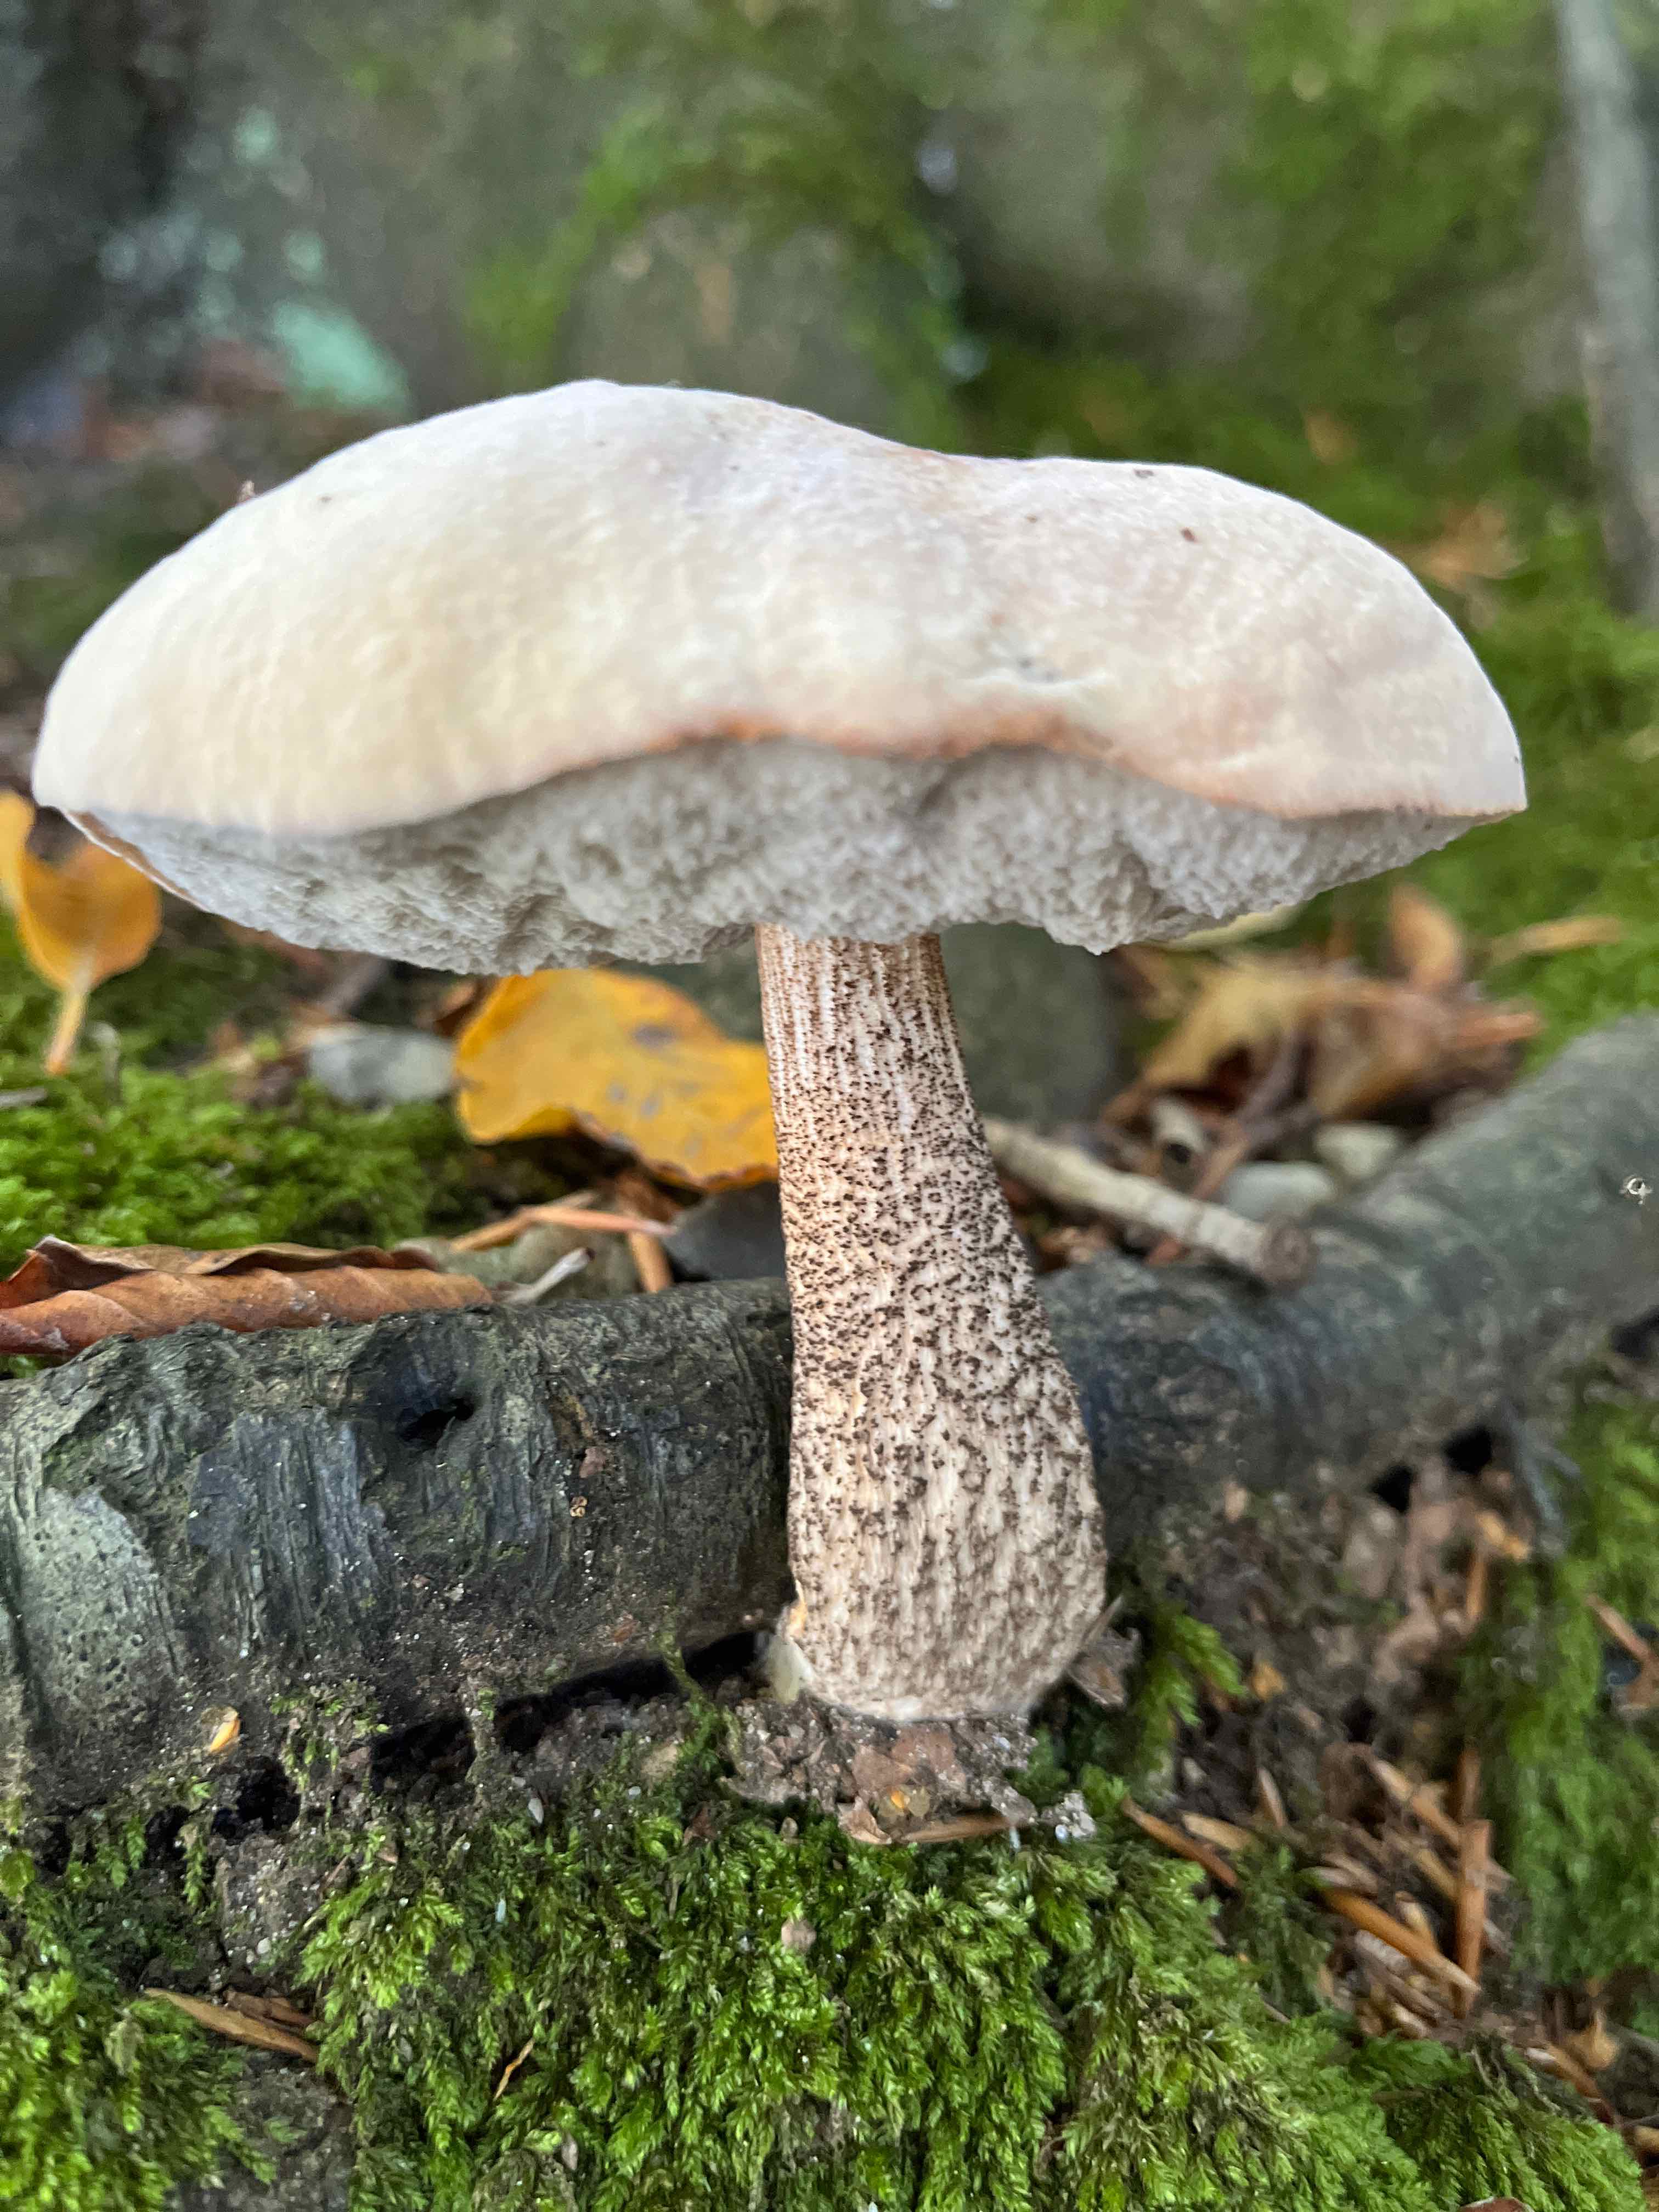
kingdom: Fungi
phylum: Basidiomycota
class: Agaricomycetes
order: Boletales
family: Boletaceae
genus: Leccinum
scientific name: Leccinum
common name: skælrørhat
